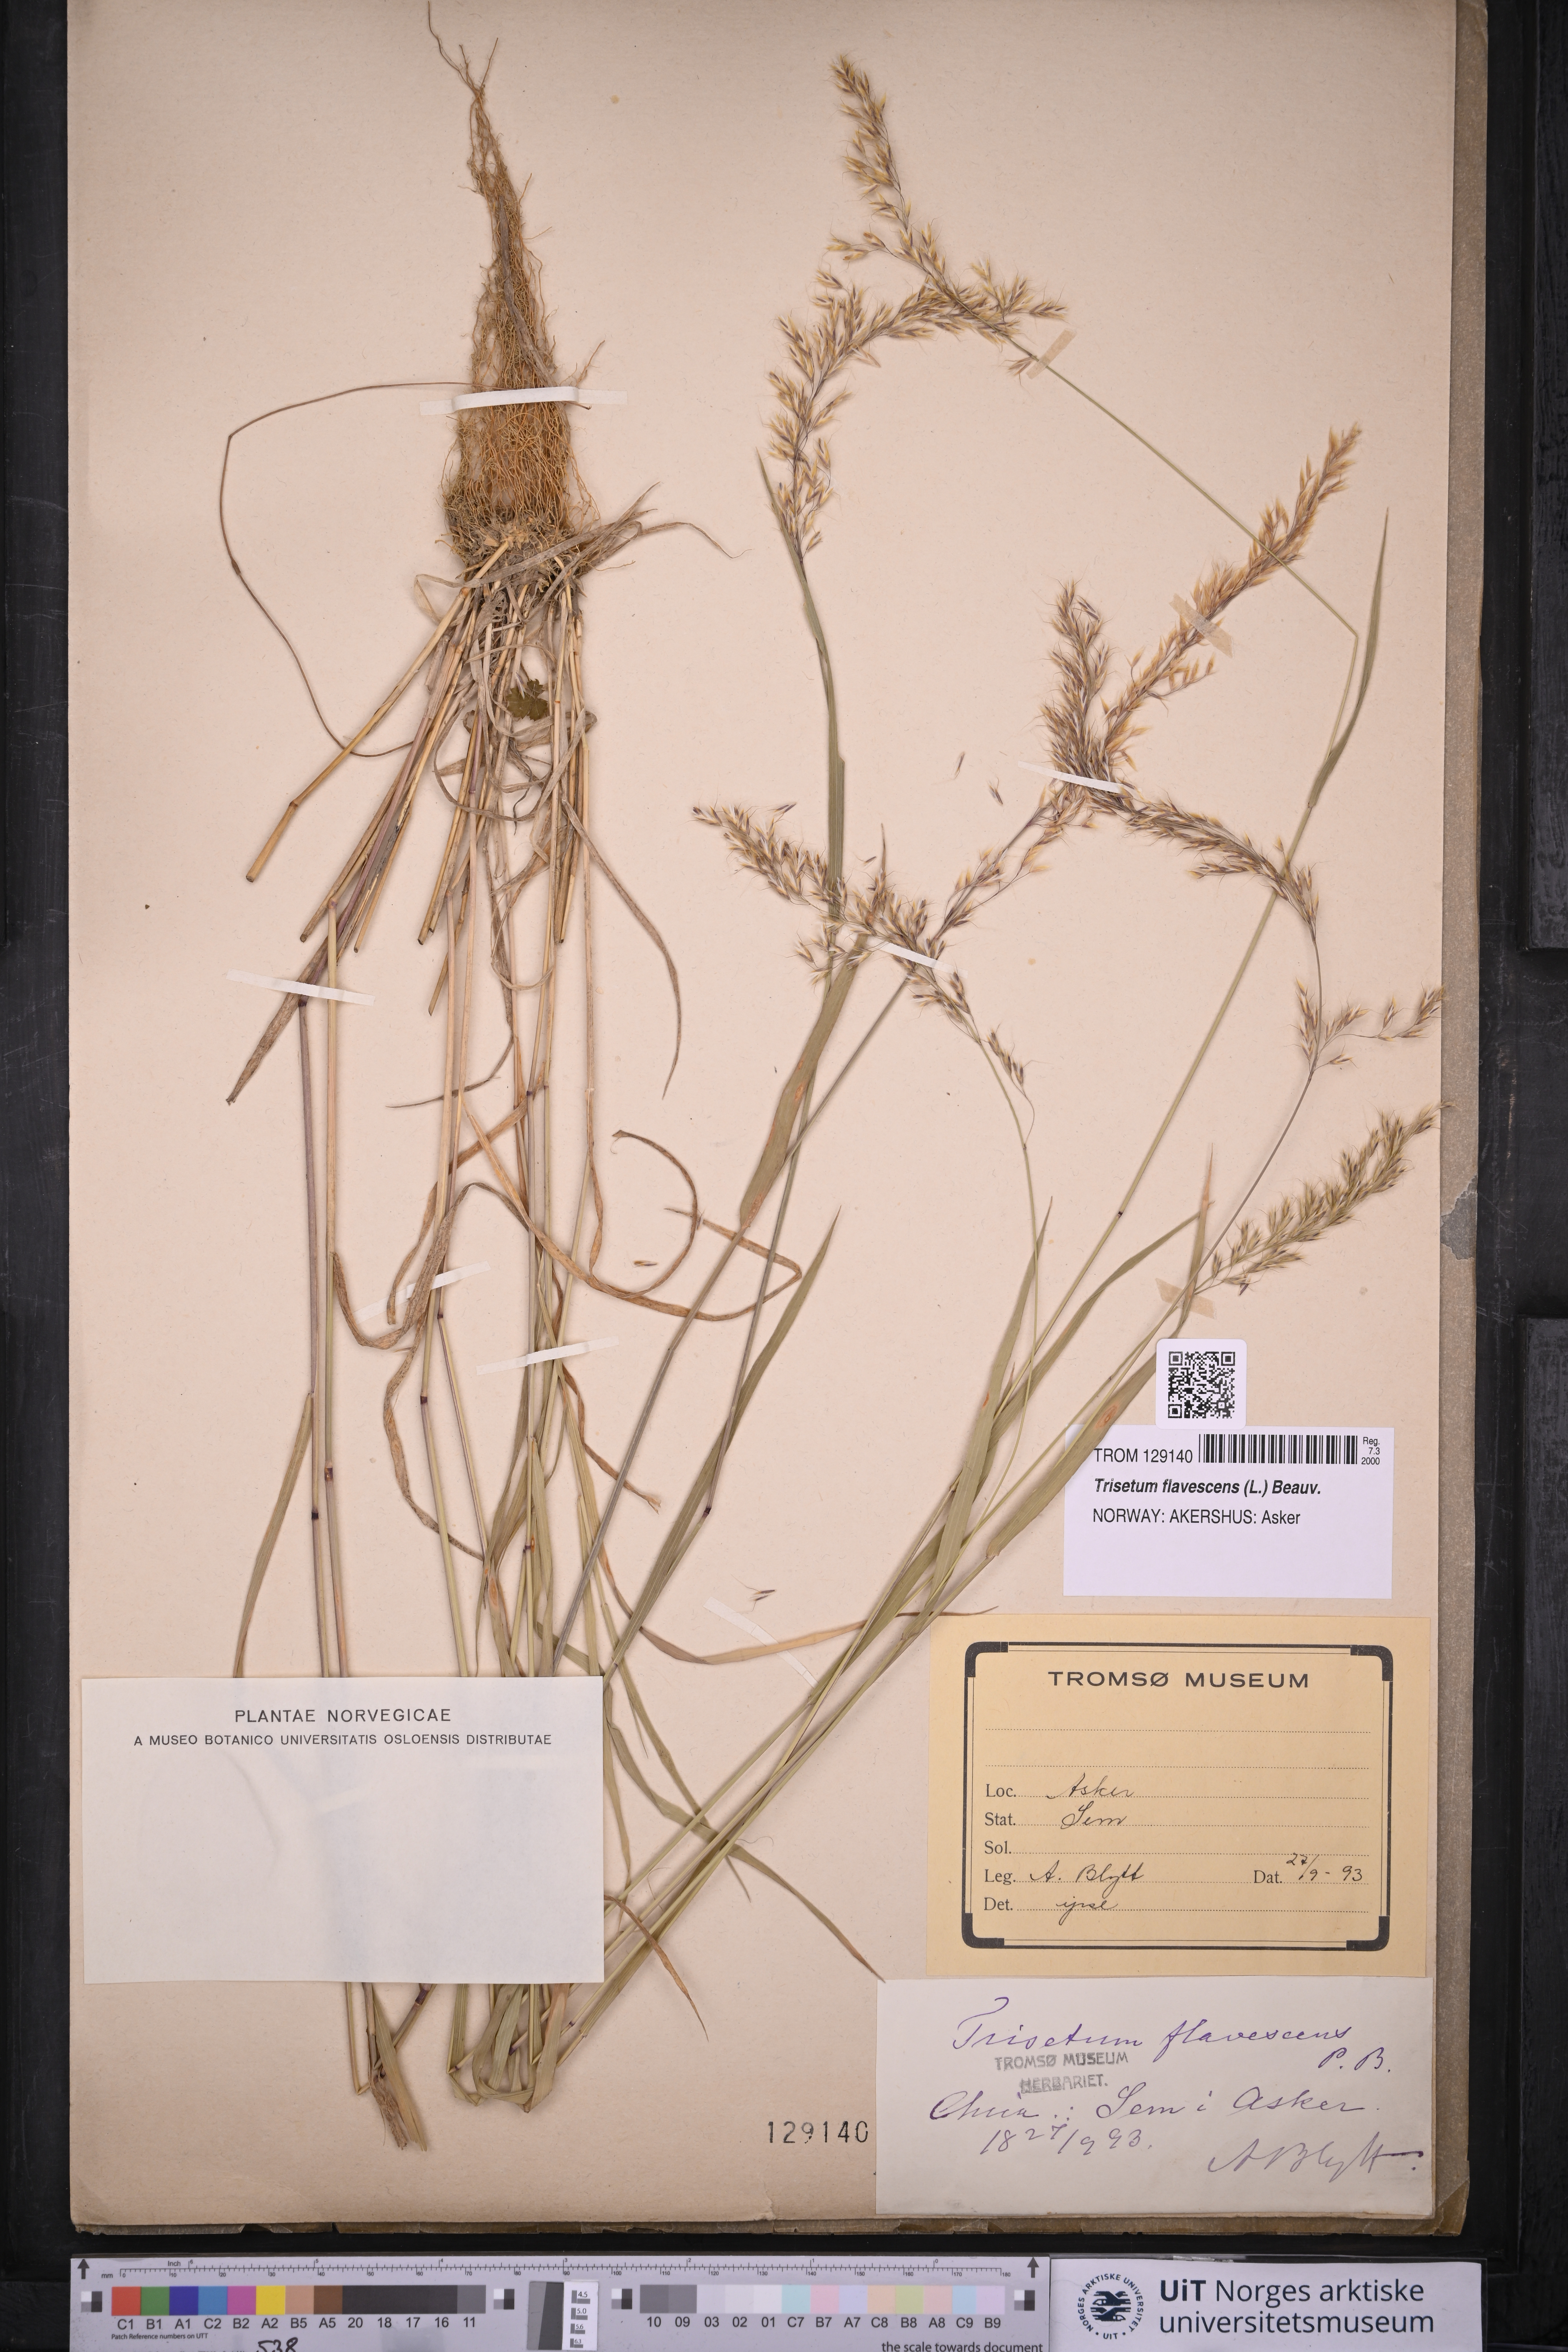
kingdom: Plantae
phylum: Tracheophyta
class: Liliopsida
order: Poales
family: Poaceae
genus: Trisetum
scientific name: Trisetum flavescens
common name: Yellow oat-grass
